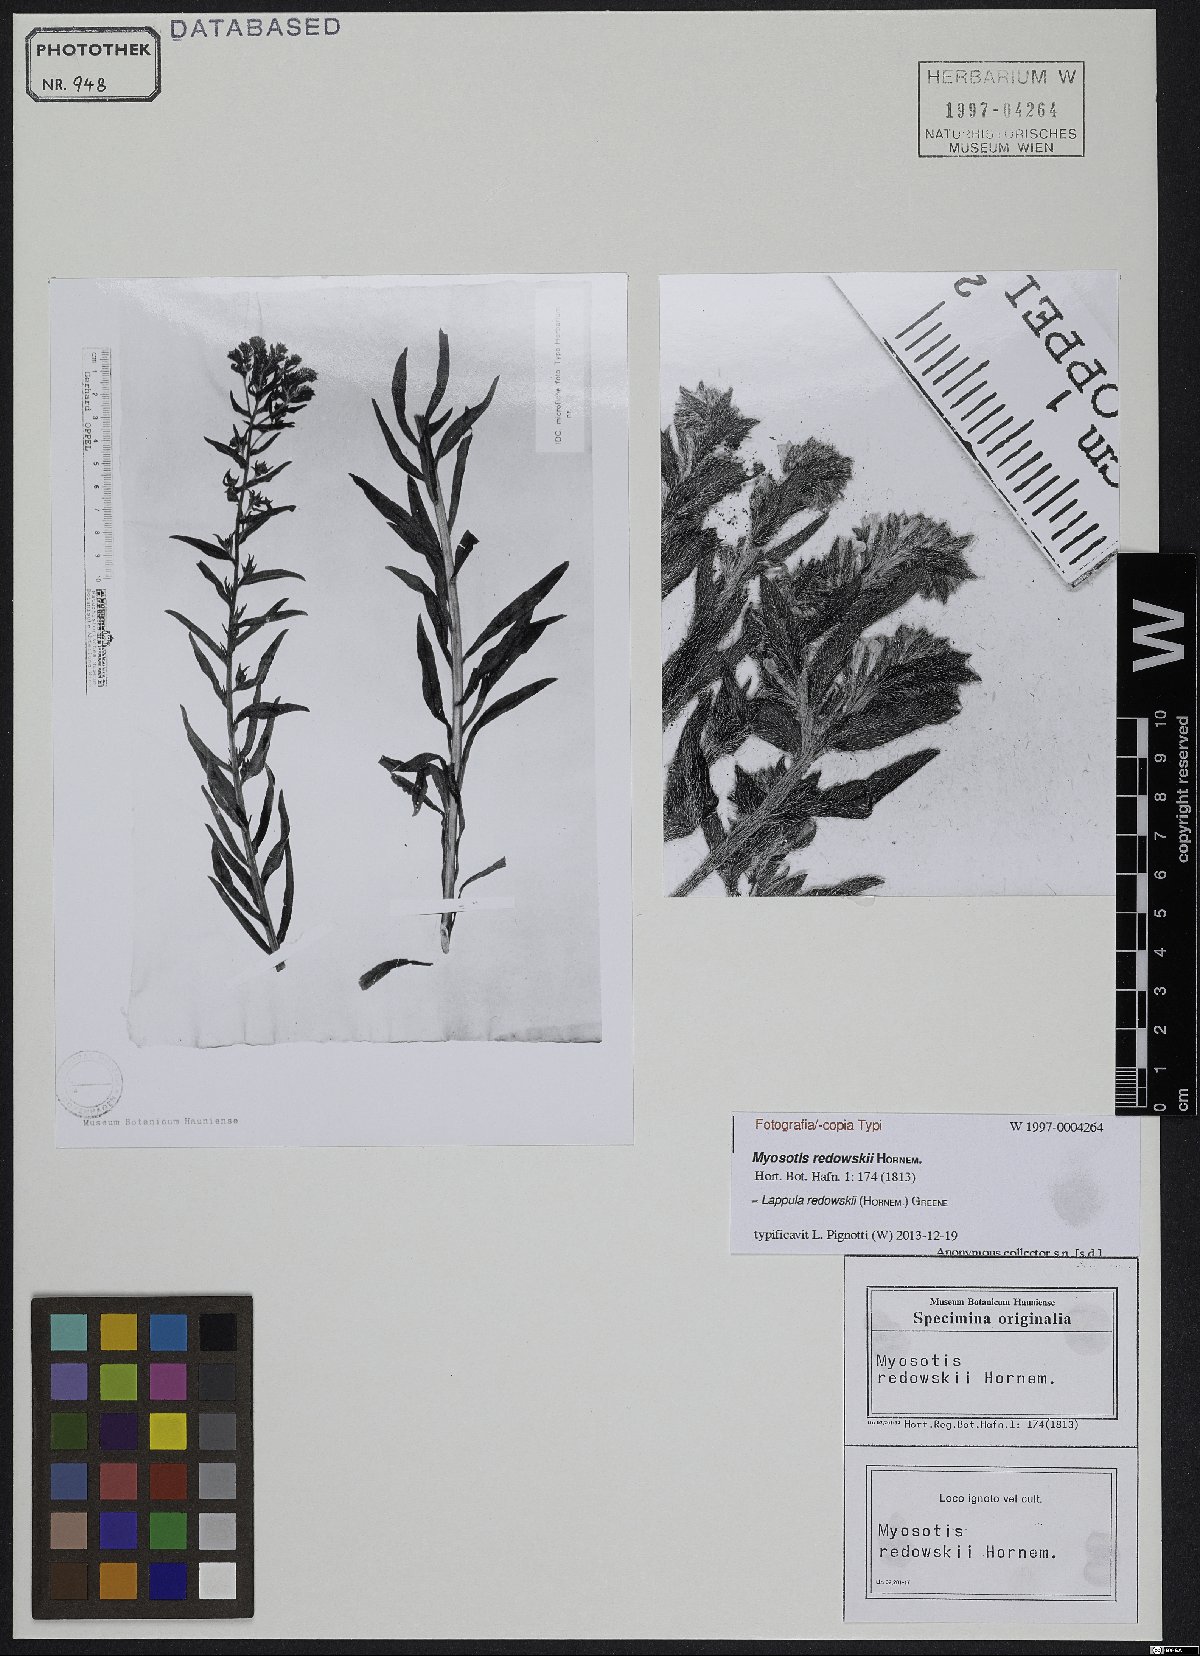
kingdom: Plantae
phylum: Tracheophyta
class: Magnoliopsida
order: Boraginales
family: Boraginaceae
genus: Lappula
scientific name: Lappula redowskii
